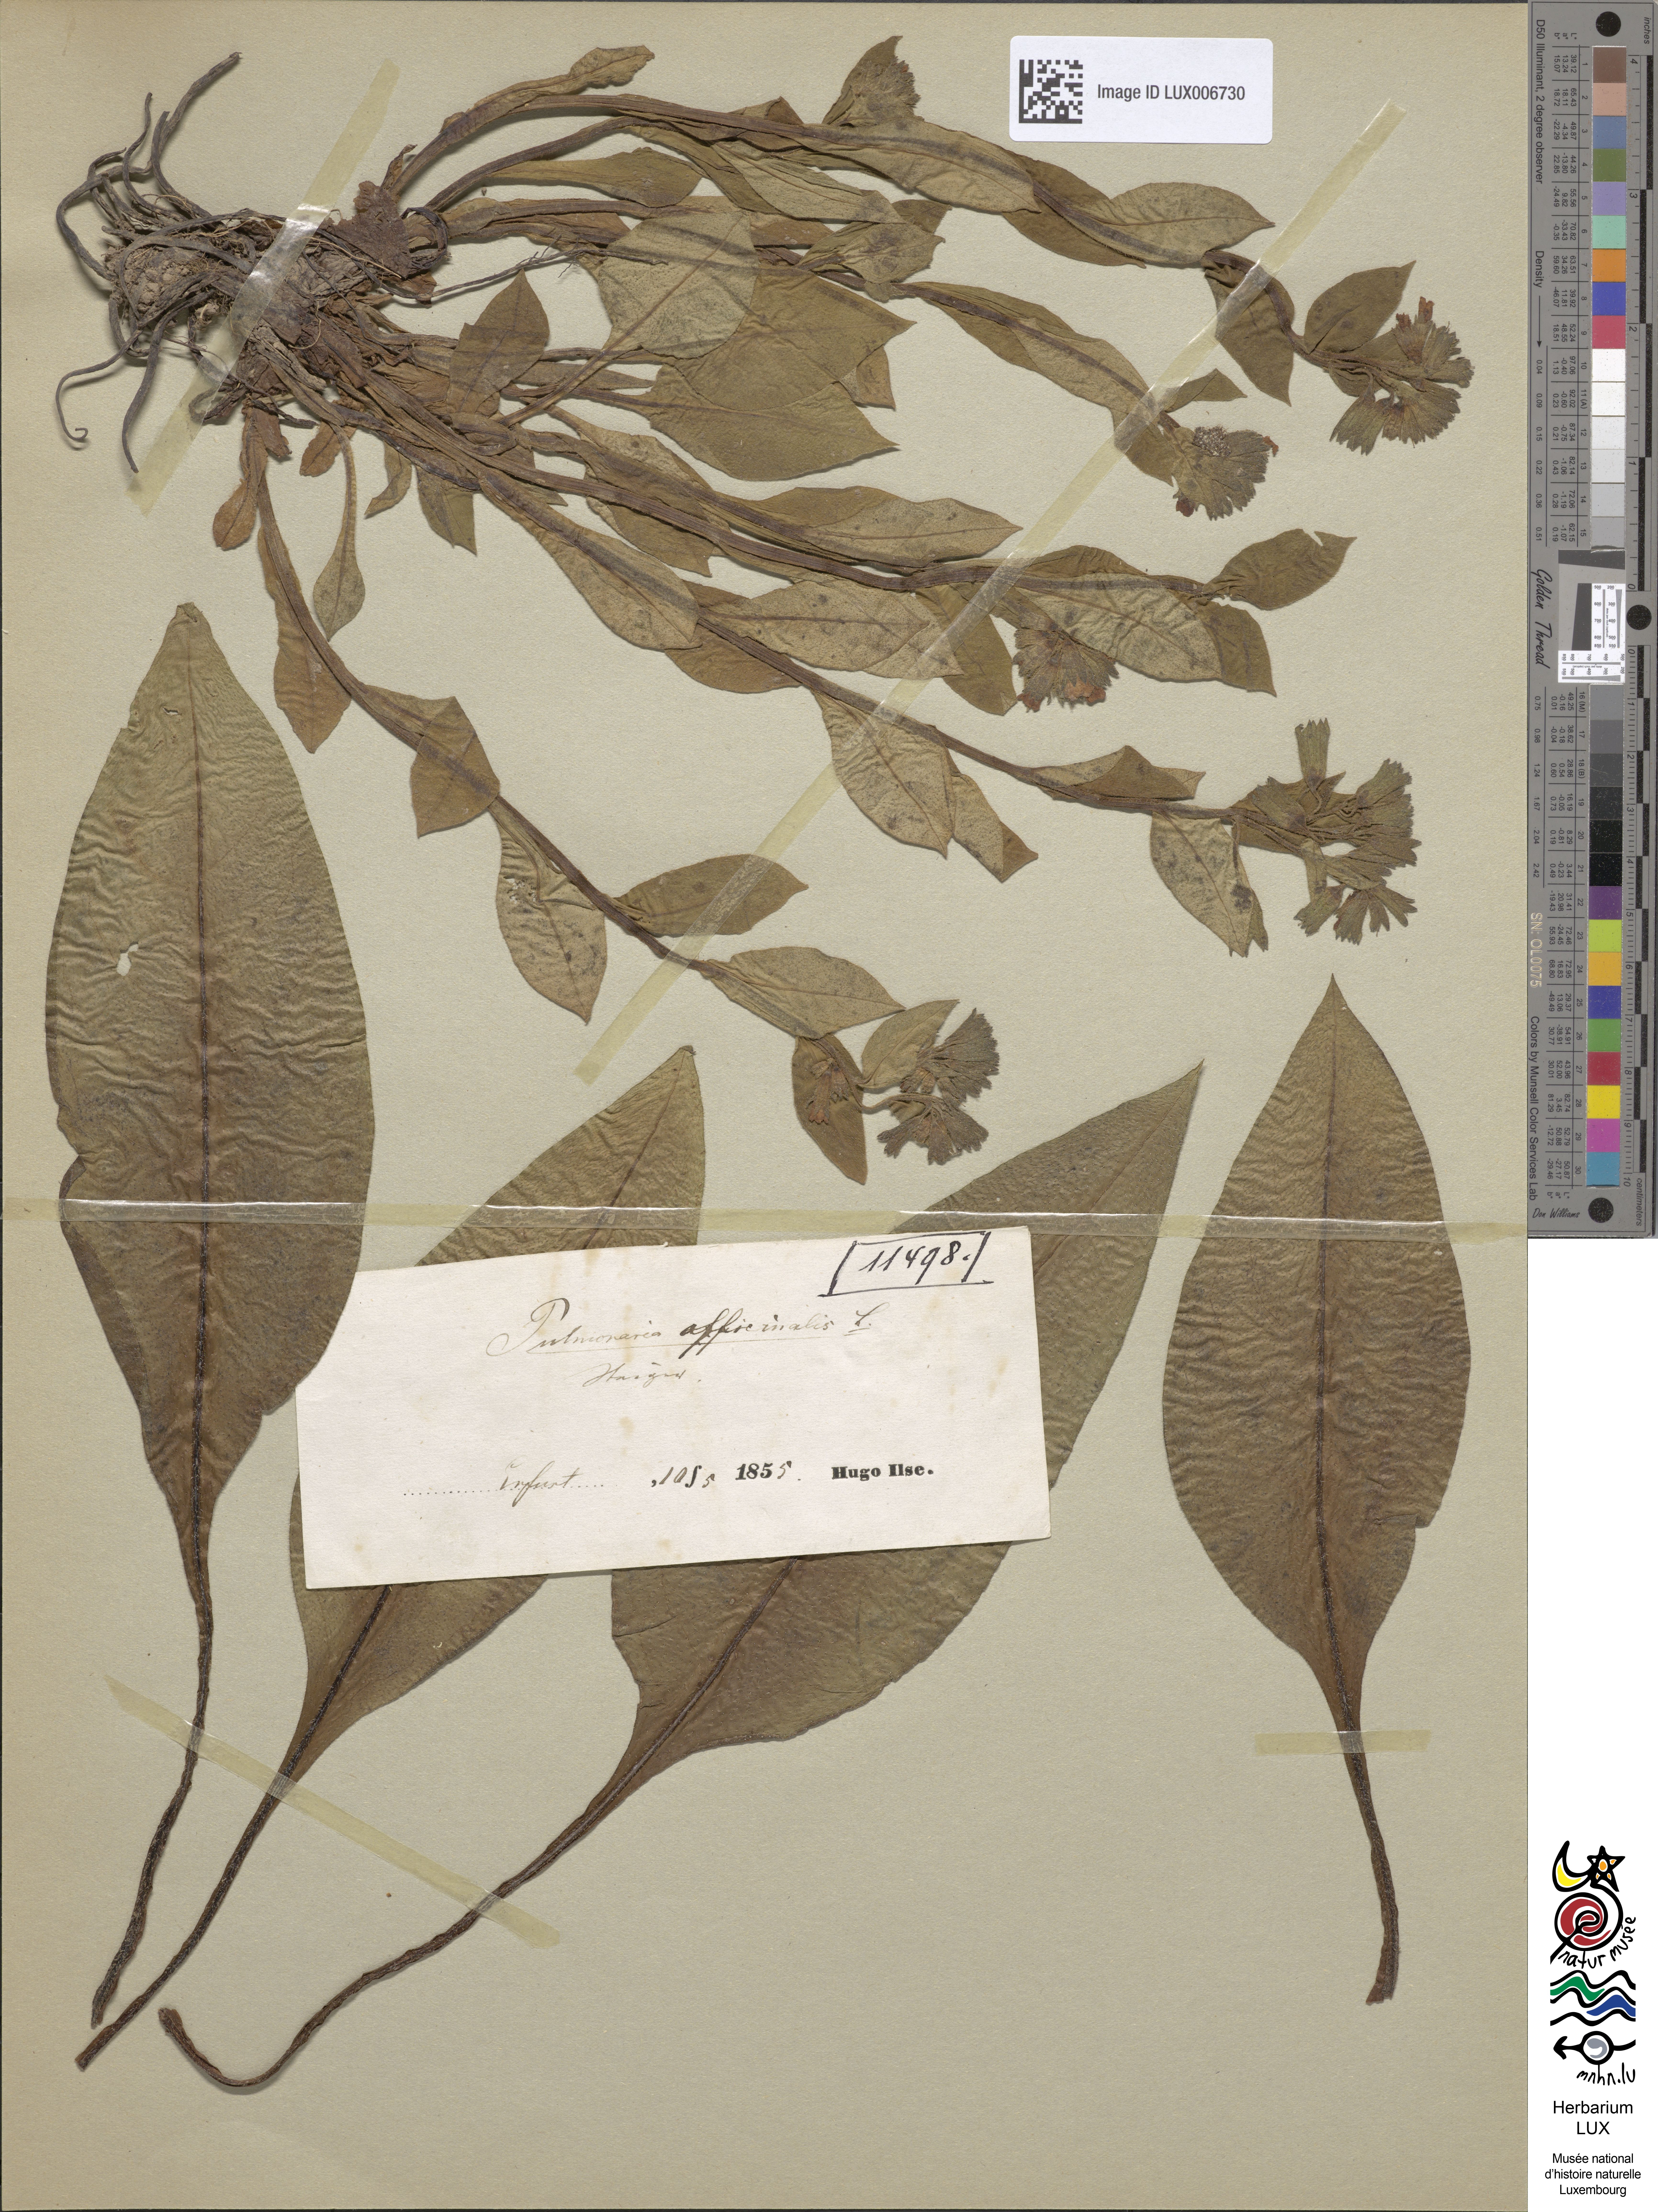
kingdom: Plantae
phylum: Tracheophyta
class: Magnoliopsida
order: Boraginales
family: Boraginaceae
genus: Pulmonaria
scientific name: Pulmonaria officinalis
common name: Lungwort
